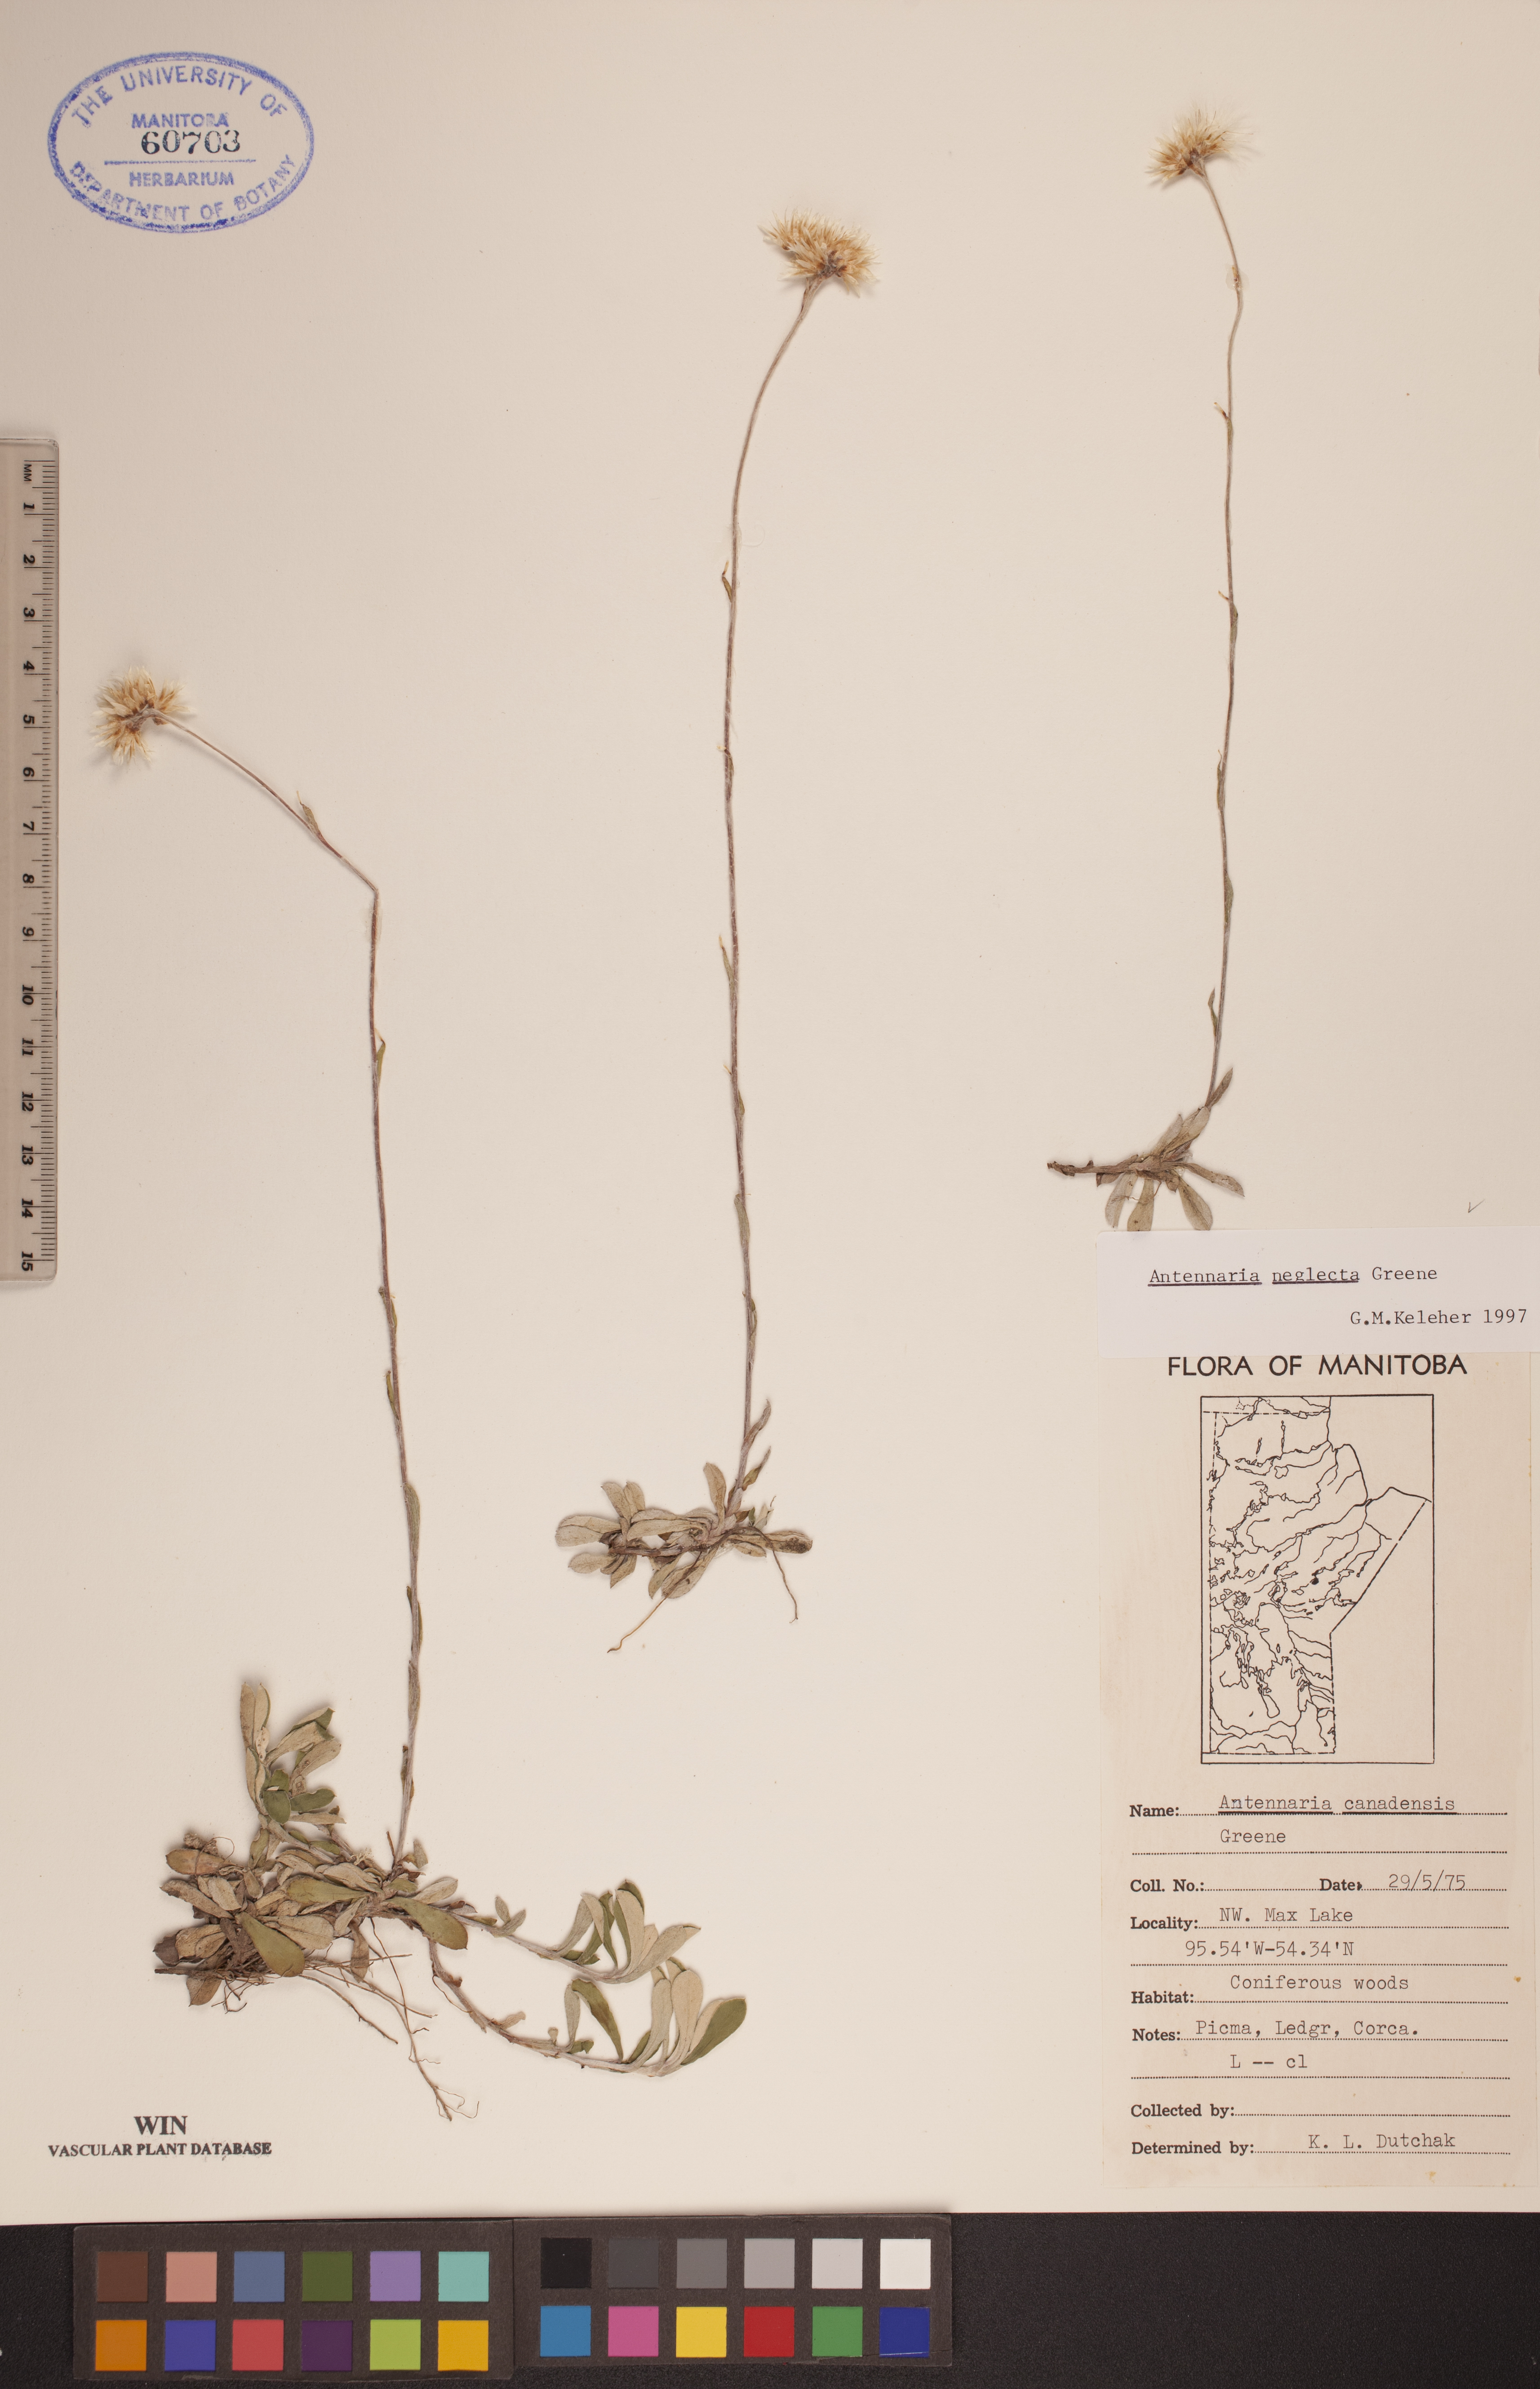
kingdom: Plantae
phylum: Tracheophyta
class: Magnoliopsida
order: Asterales
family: Asteraceae
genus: Antennaria
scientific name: Antennaria neglecta
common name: Field pussytoes
